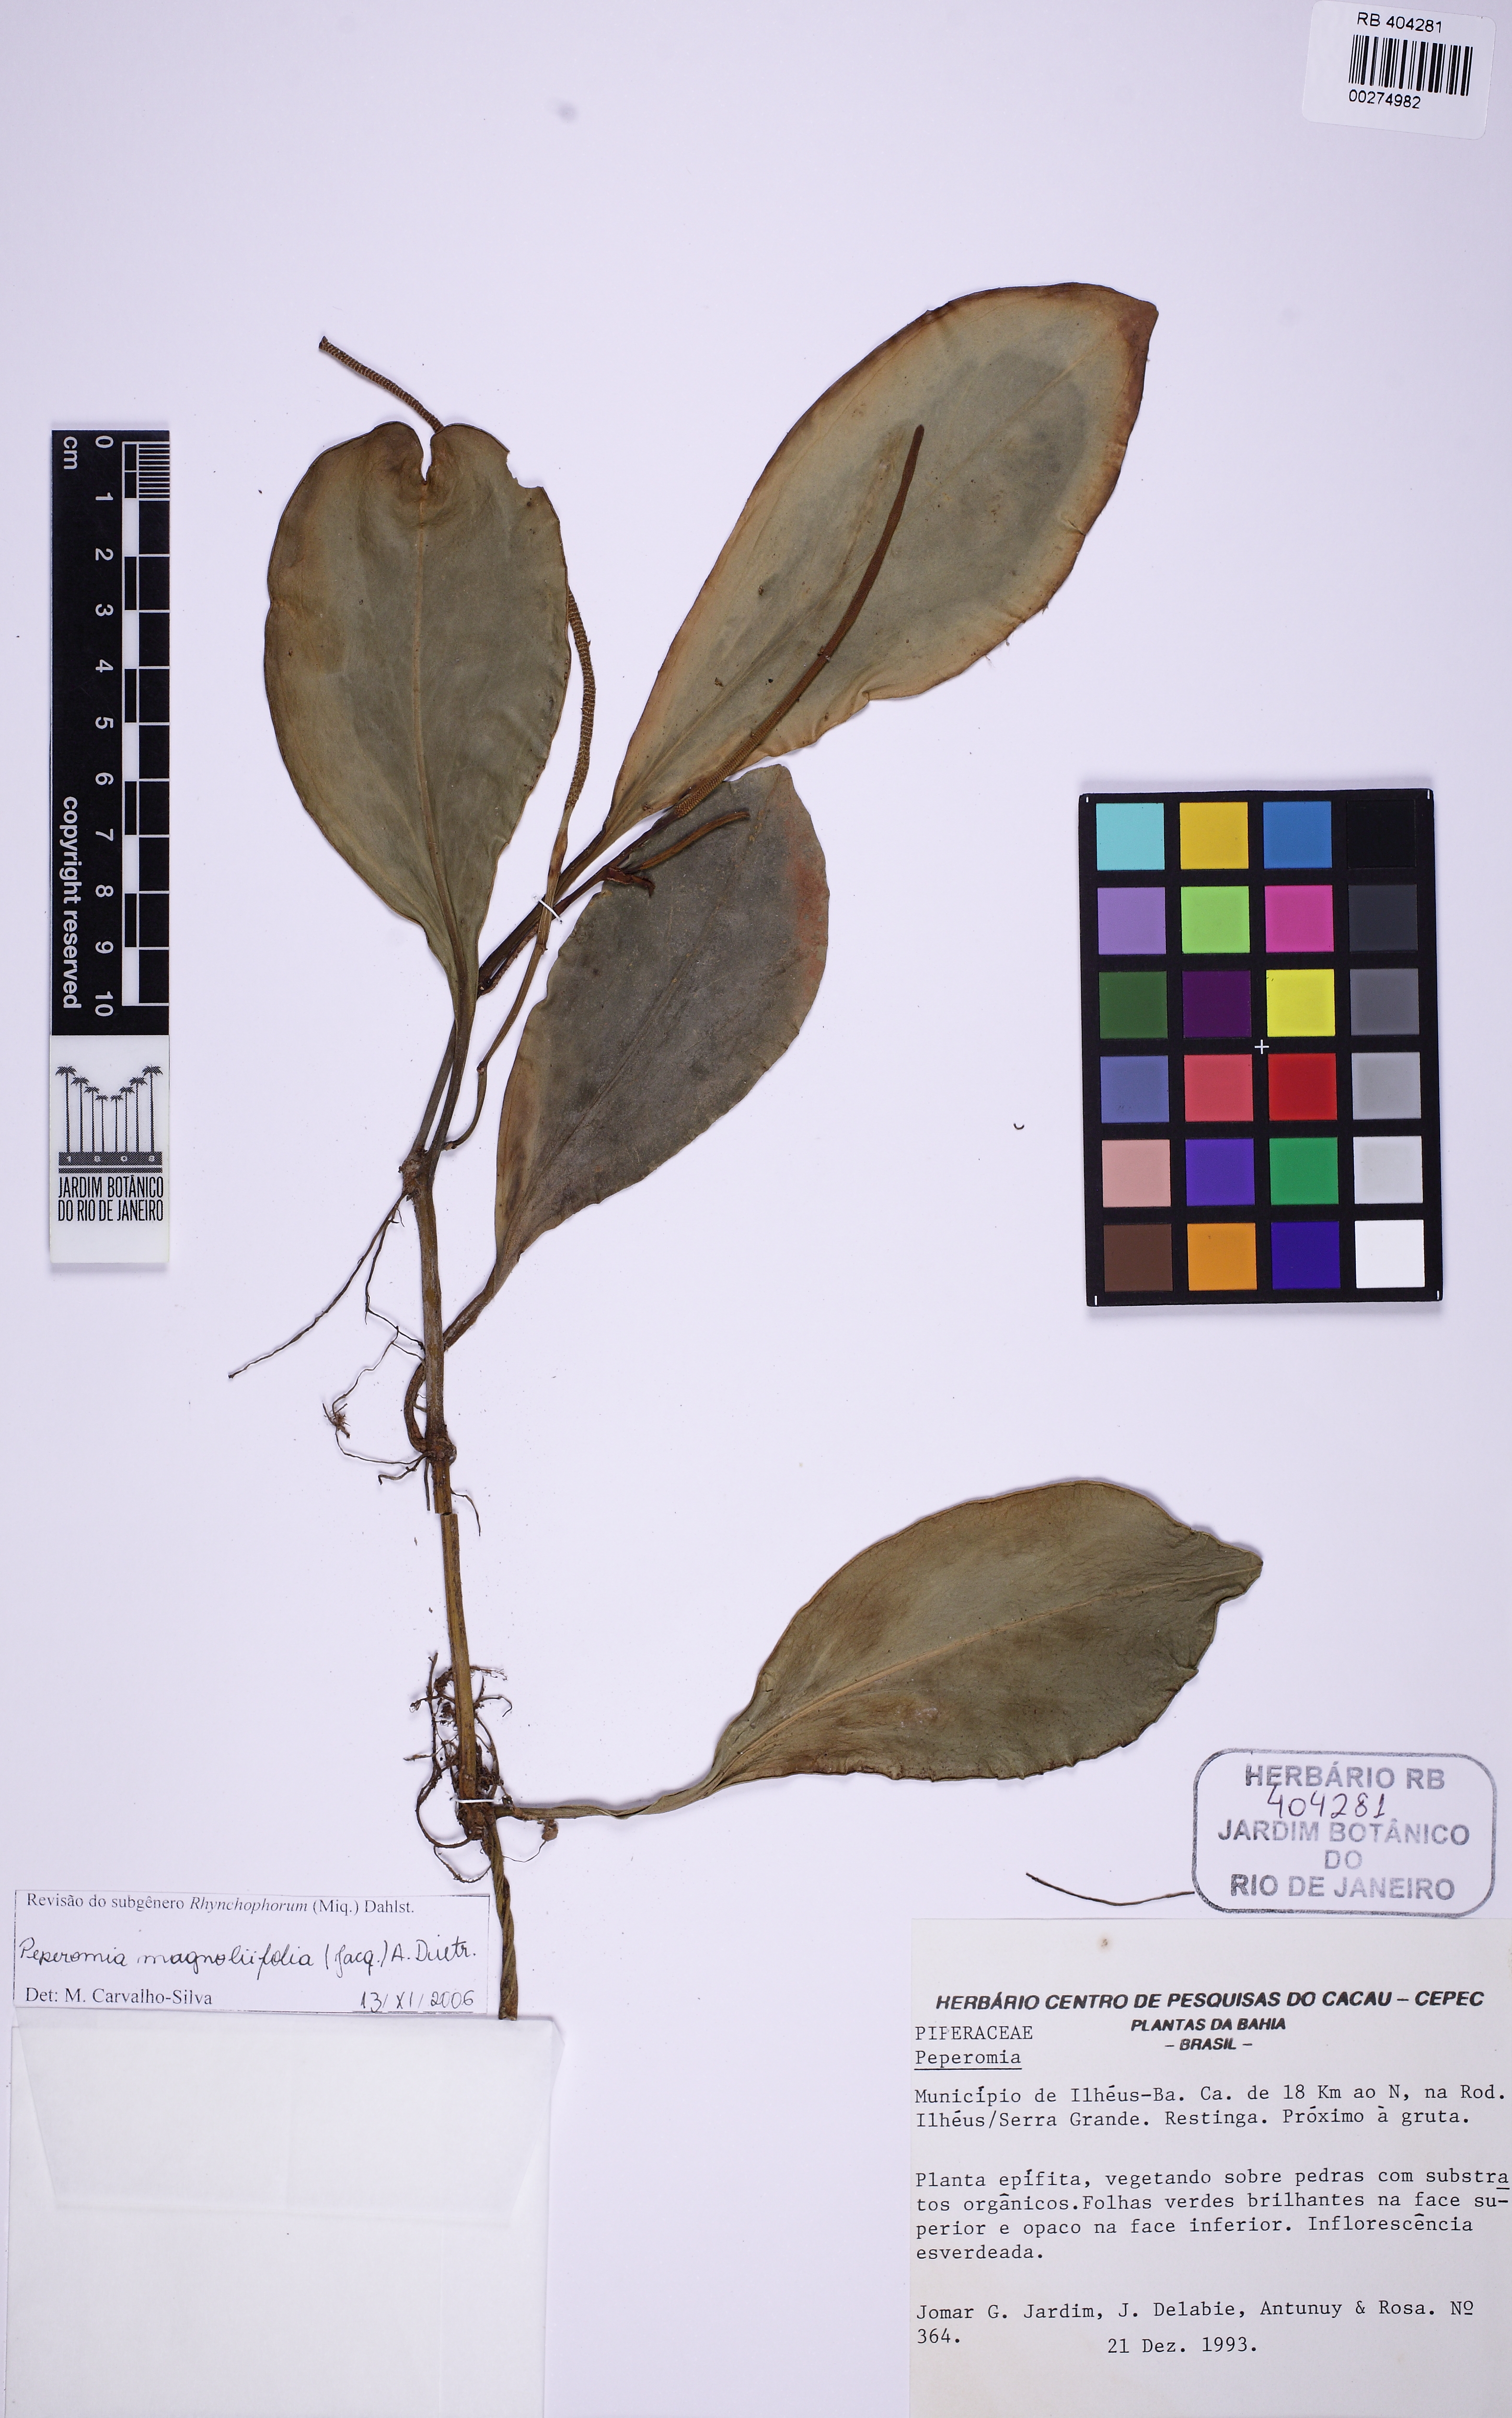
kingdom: Plantae
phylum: Tracheophyta
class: Magnoliopsida
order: Piperales
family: Piperaceae
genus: Peperomia
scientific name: Peperomia magnoliifolia
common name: Spoonleaf peperomia
